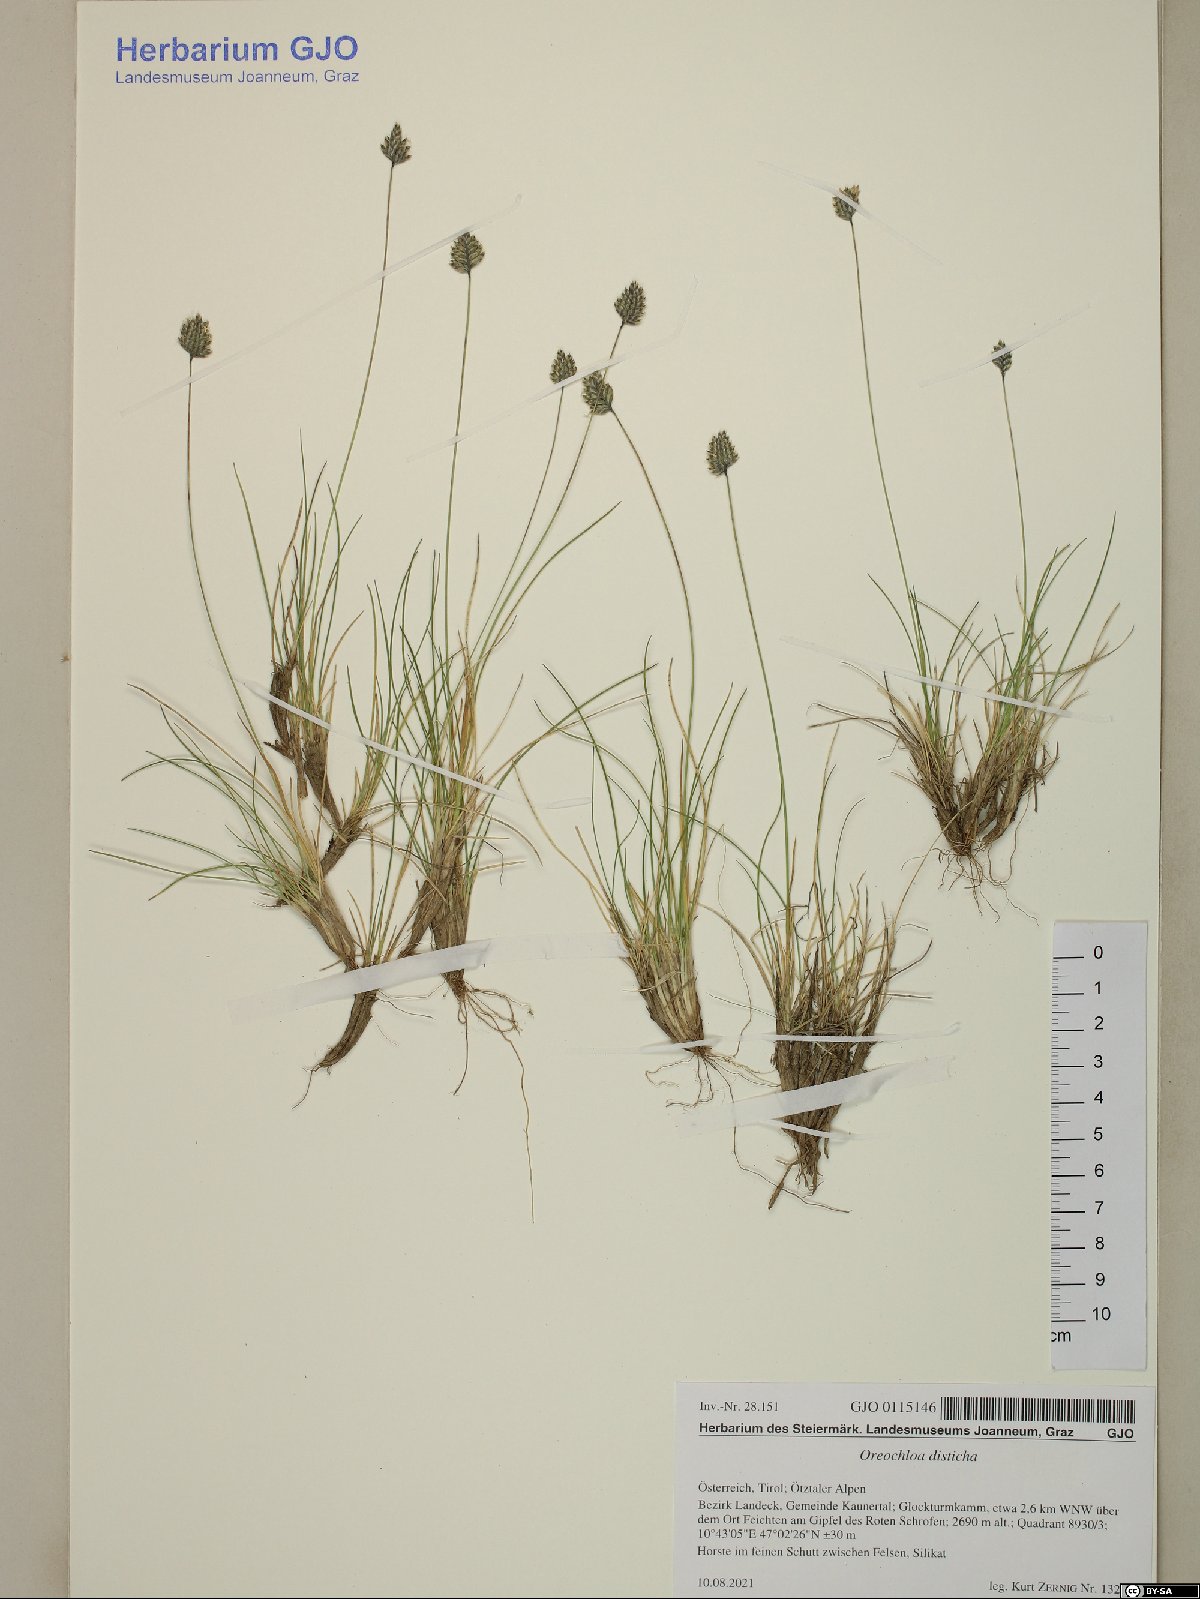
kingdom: Plantae
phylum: Tracheophyta
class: Liliopsida
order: Poales
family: Poaceae
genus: Oreochloa
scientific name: Oreochloa disticha
